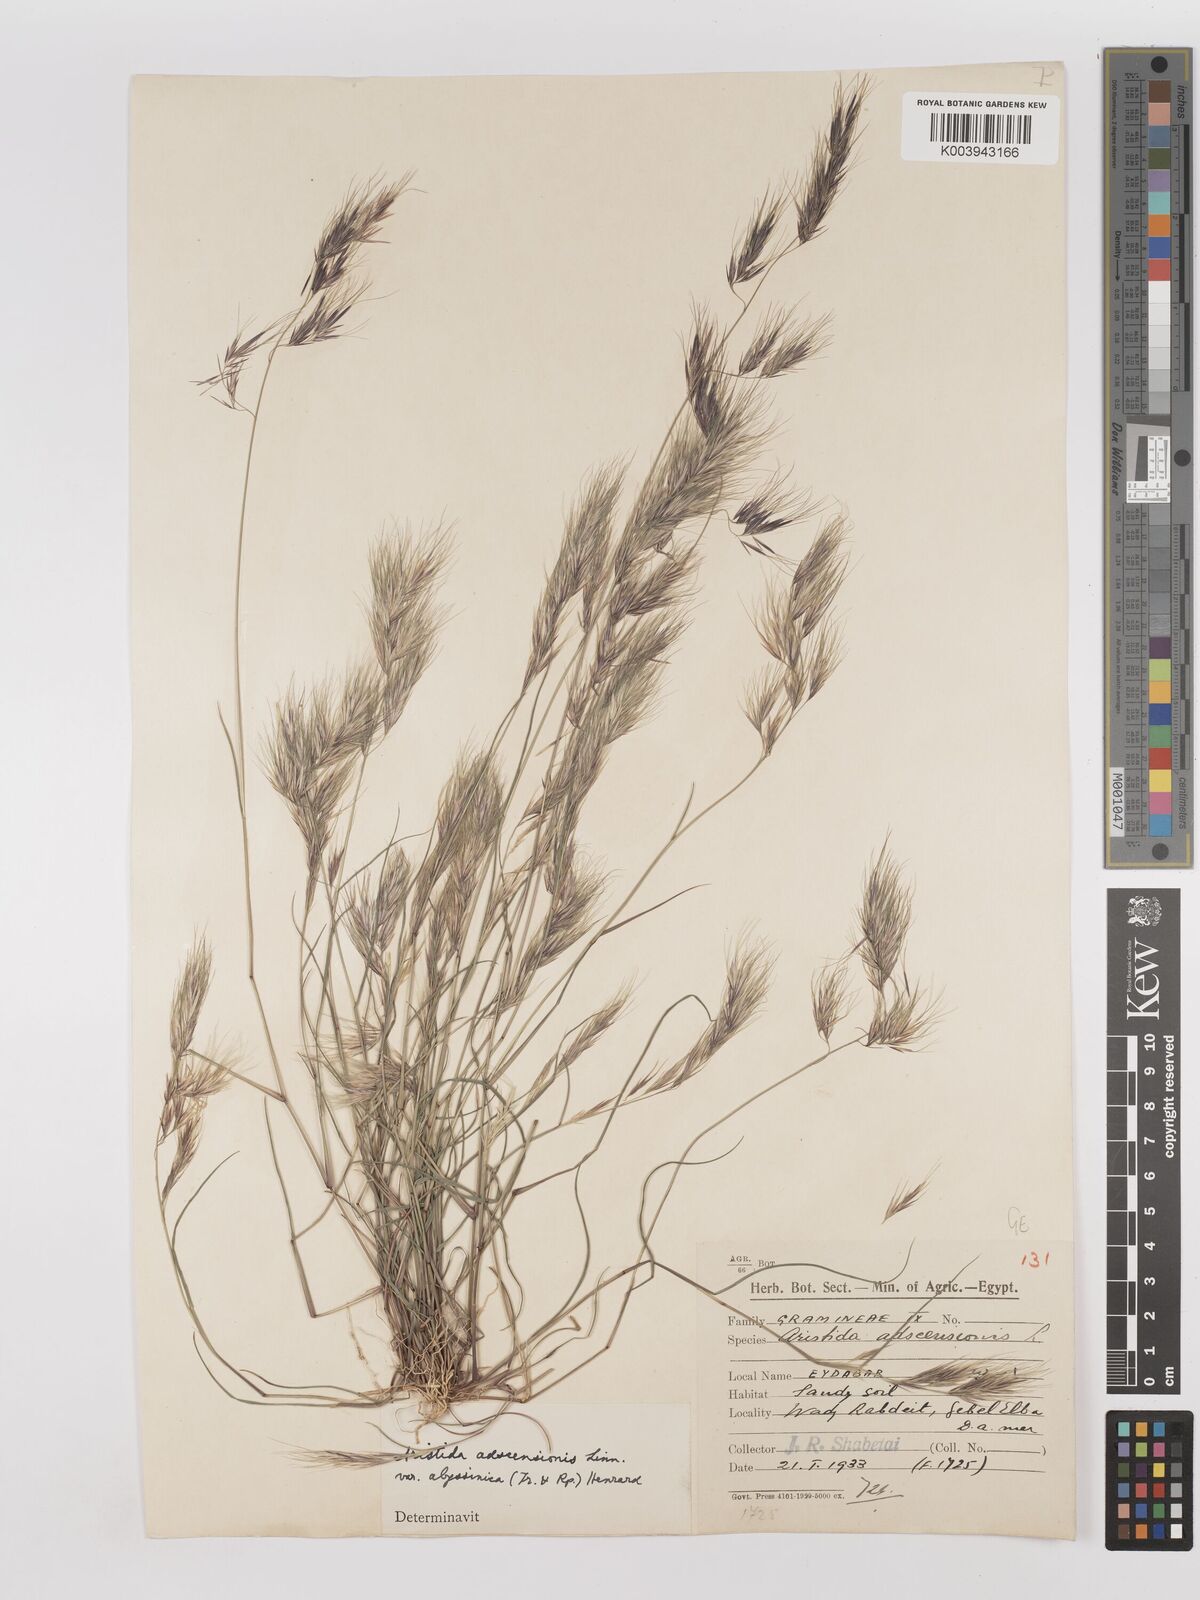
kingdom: Plantae
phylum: Tracheophyta
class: Liliopsida
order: Poales
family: Poaceae
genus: Aristida
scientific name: Aristida adscensionis
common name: Sixweeks threeawn
